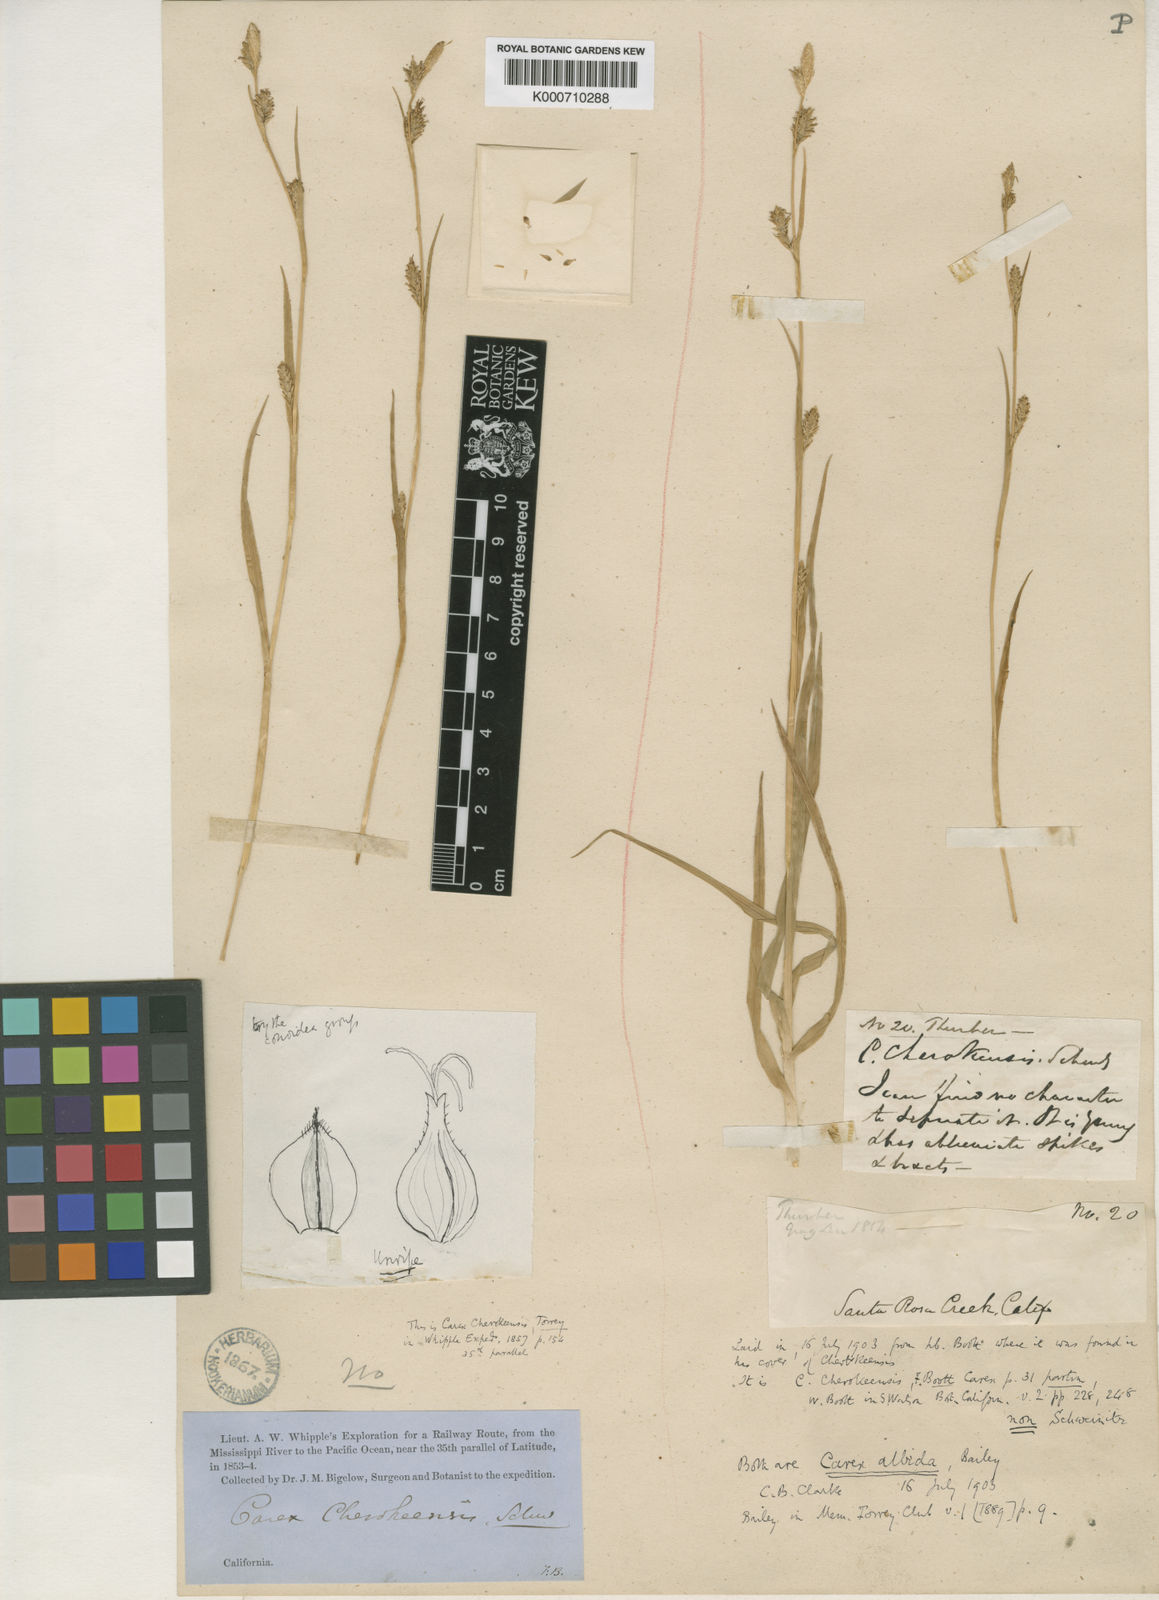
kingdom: Plantae
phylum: Tracheophyta
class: Liliopsida
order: Poales
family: Cyperaceae
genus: Carex
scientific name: Carex lemmonii
